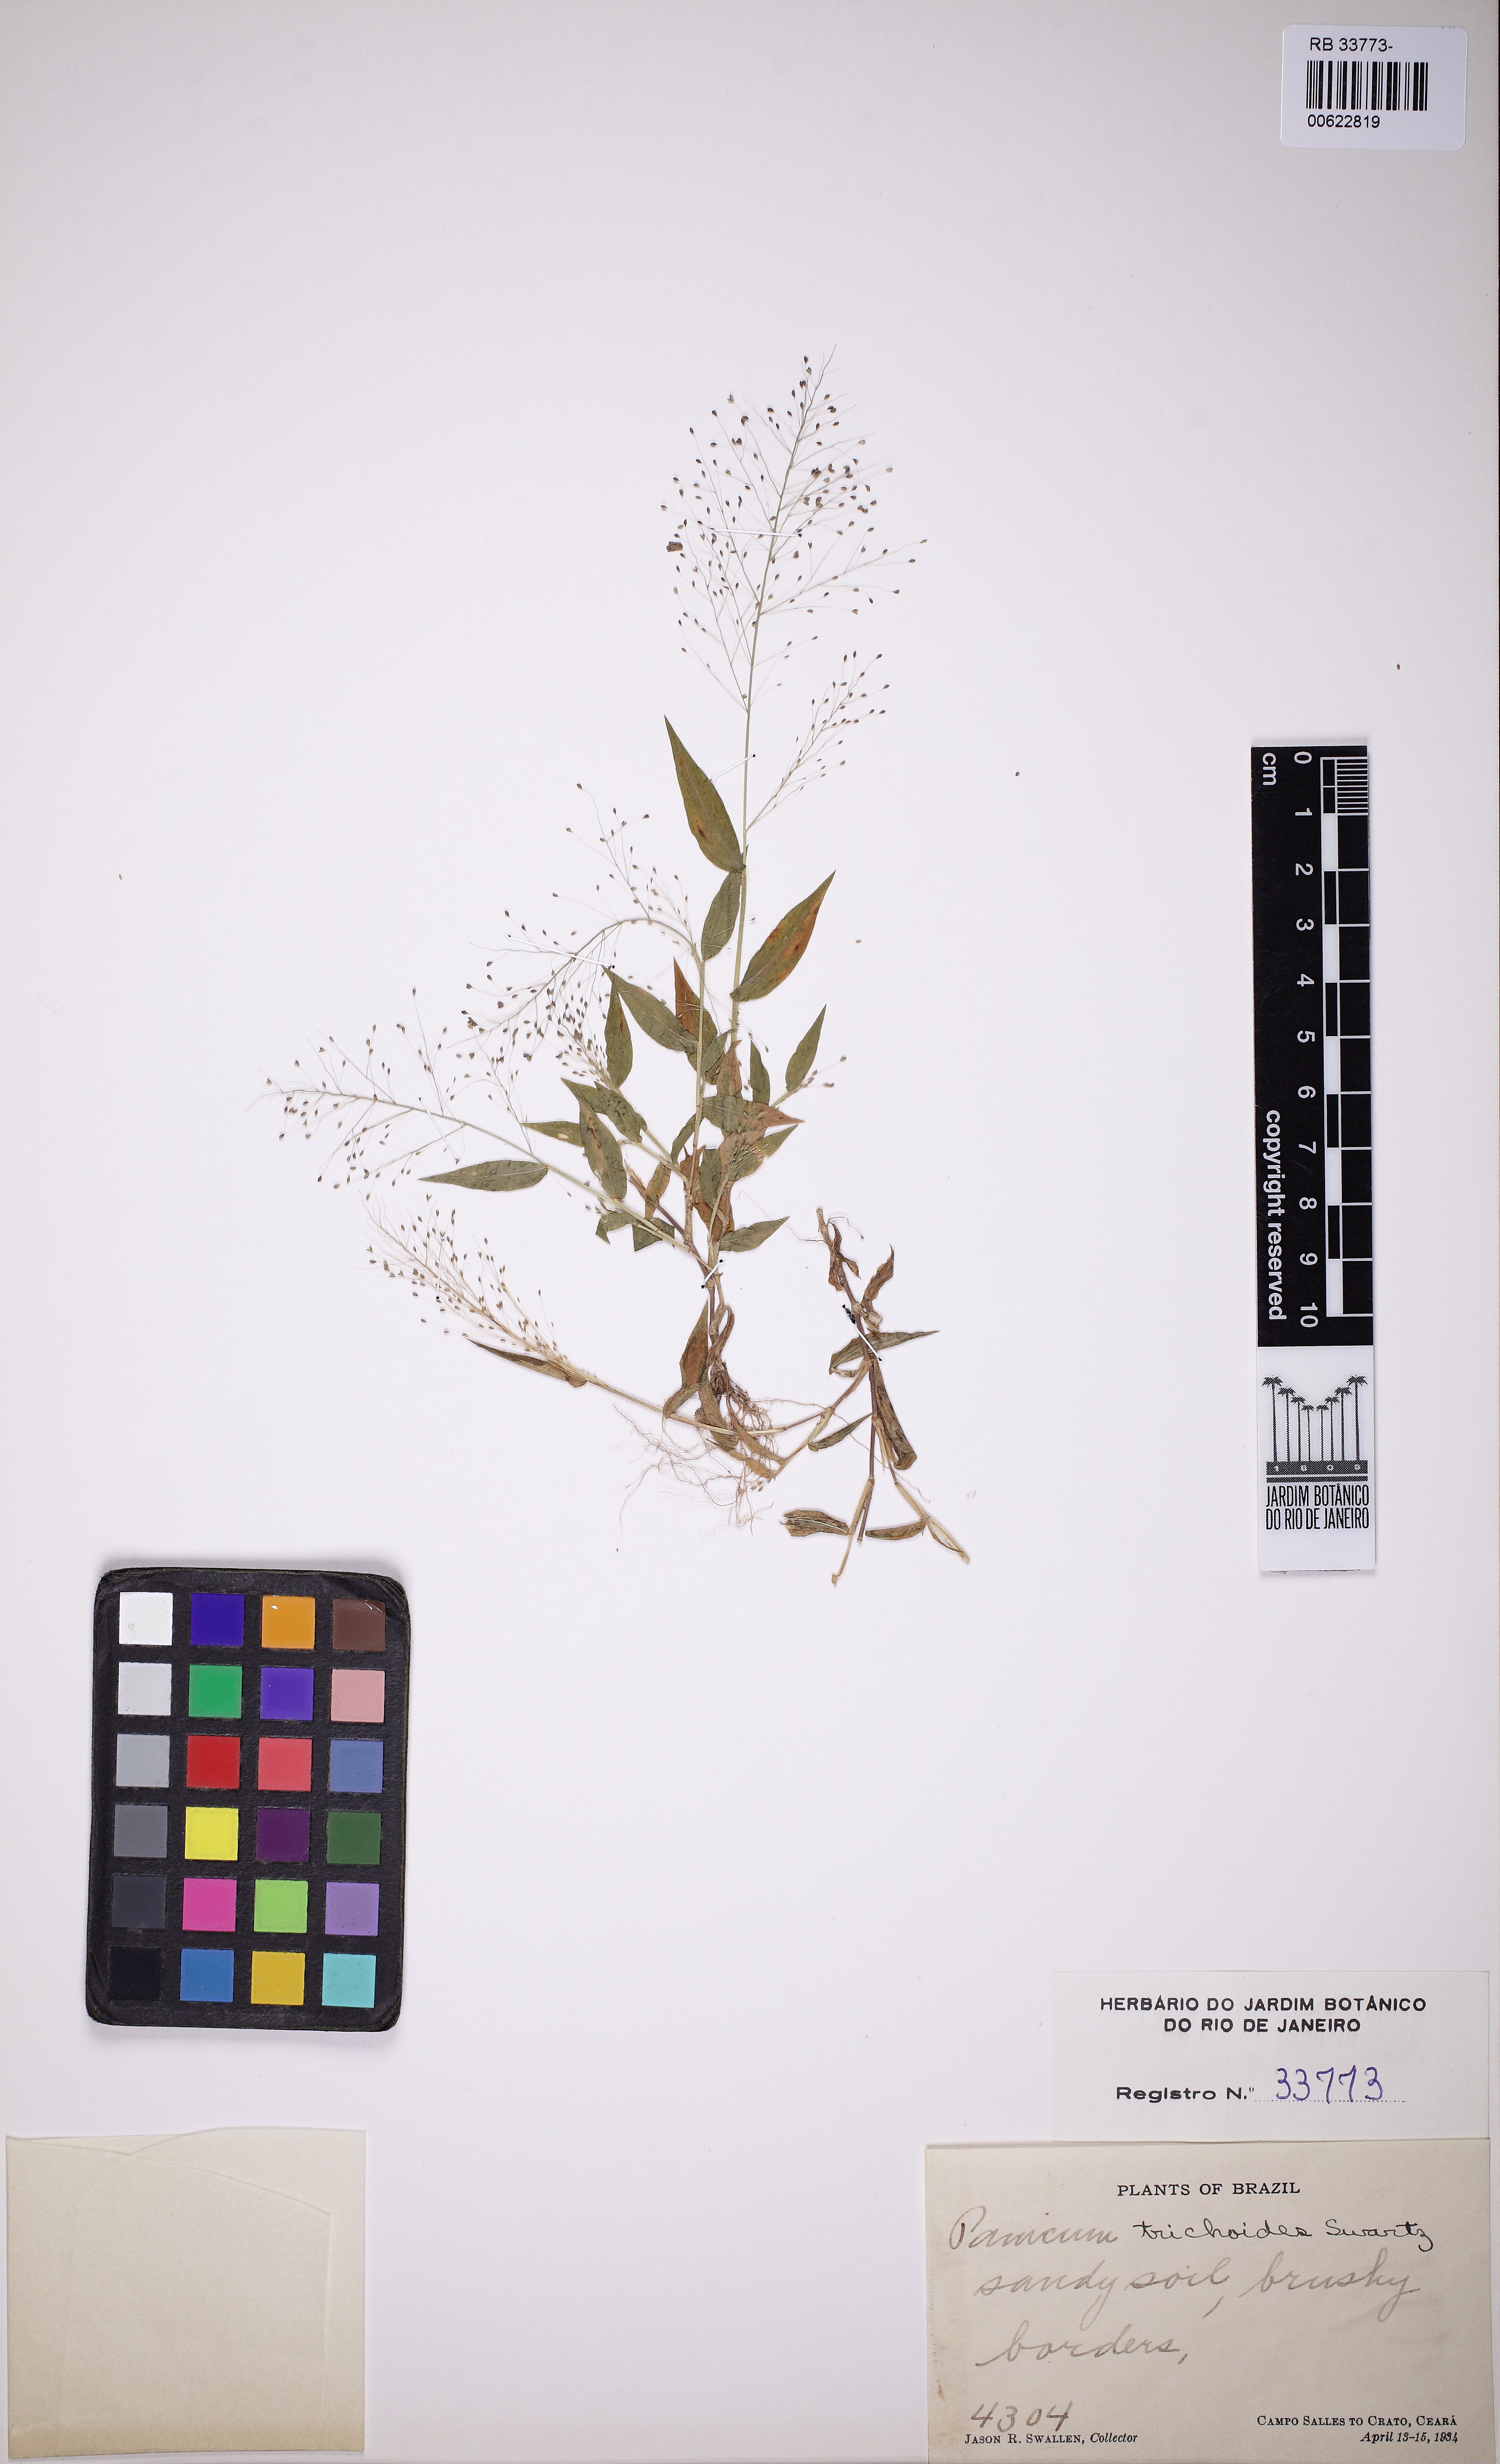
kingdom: Plantae
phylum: Tracheophyta
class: Liliopsida
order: Poales
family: Poaceae
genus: Panicum
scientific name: Panicum trichoides
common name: Tickle grass
